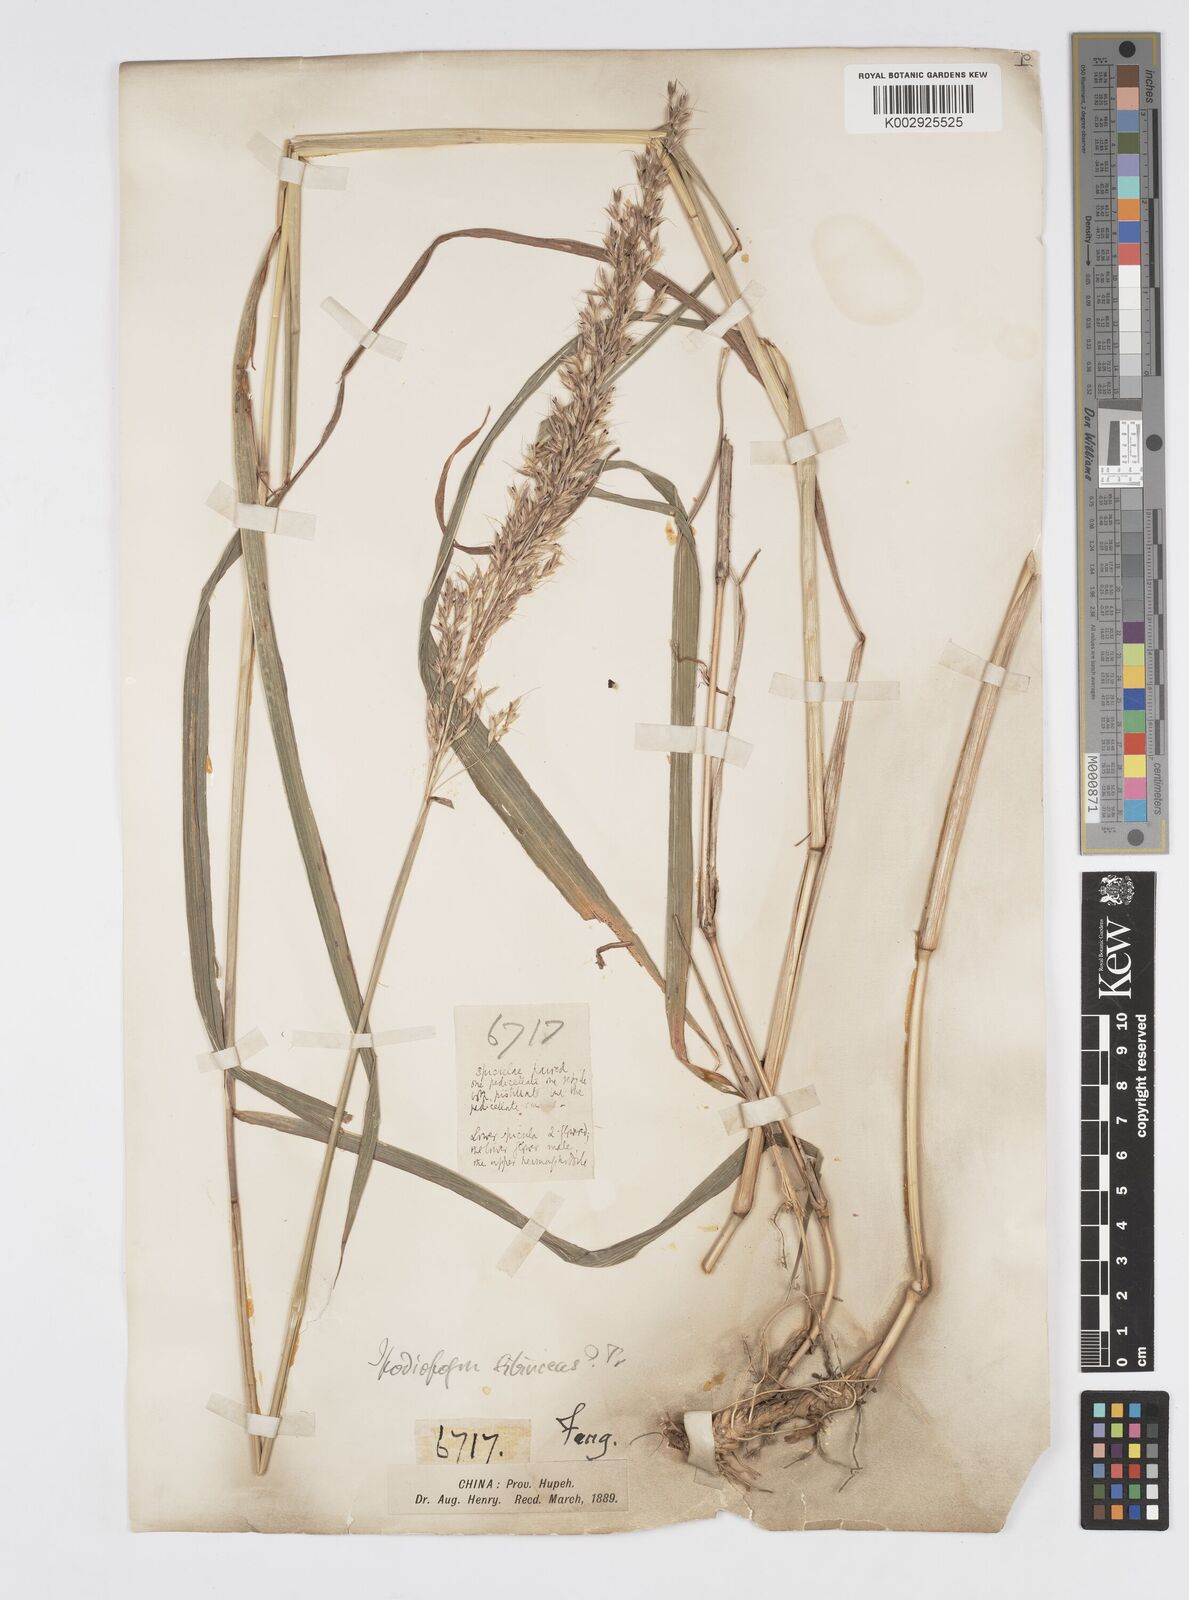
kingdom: Plantae
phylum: Tracheophyta
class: Liliopsida
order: Poales
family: Poaceae
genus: Spodiopogon
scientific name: Spodiopogon sibiricus
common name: Siberian graybeard
